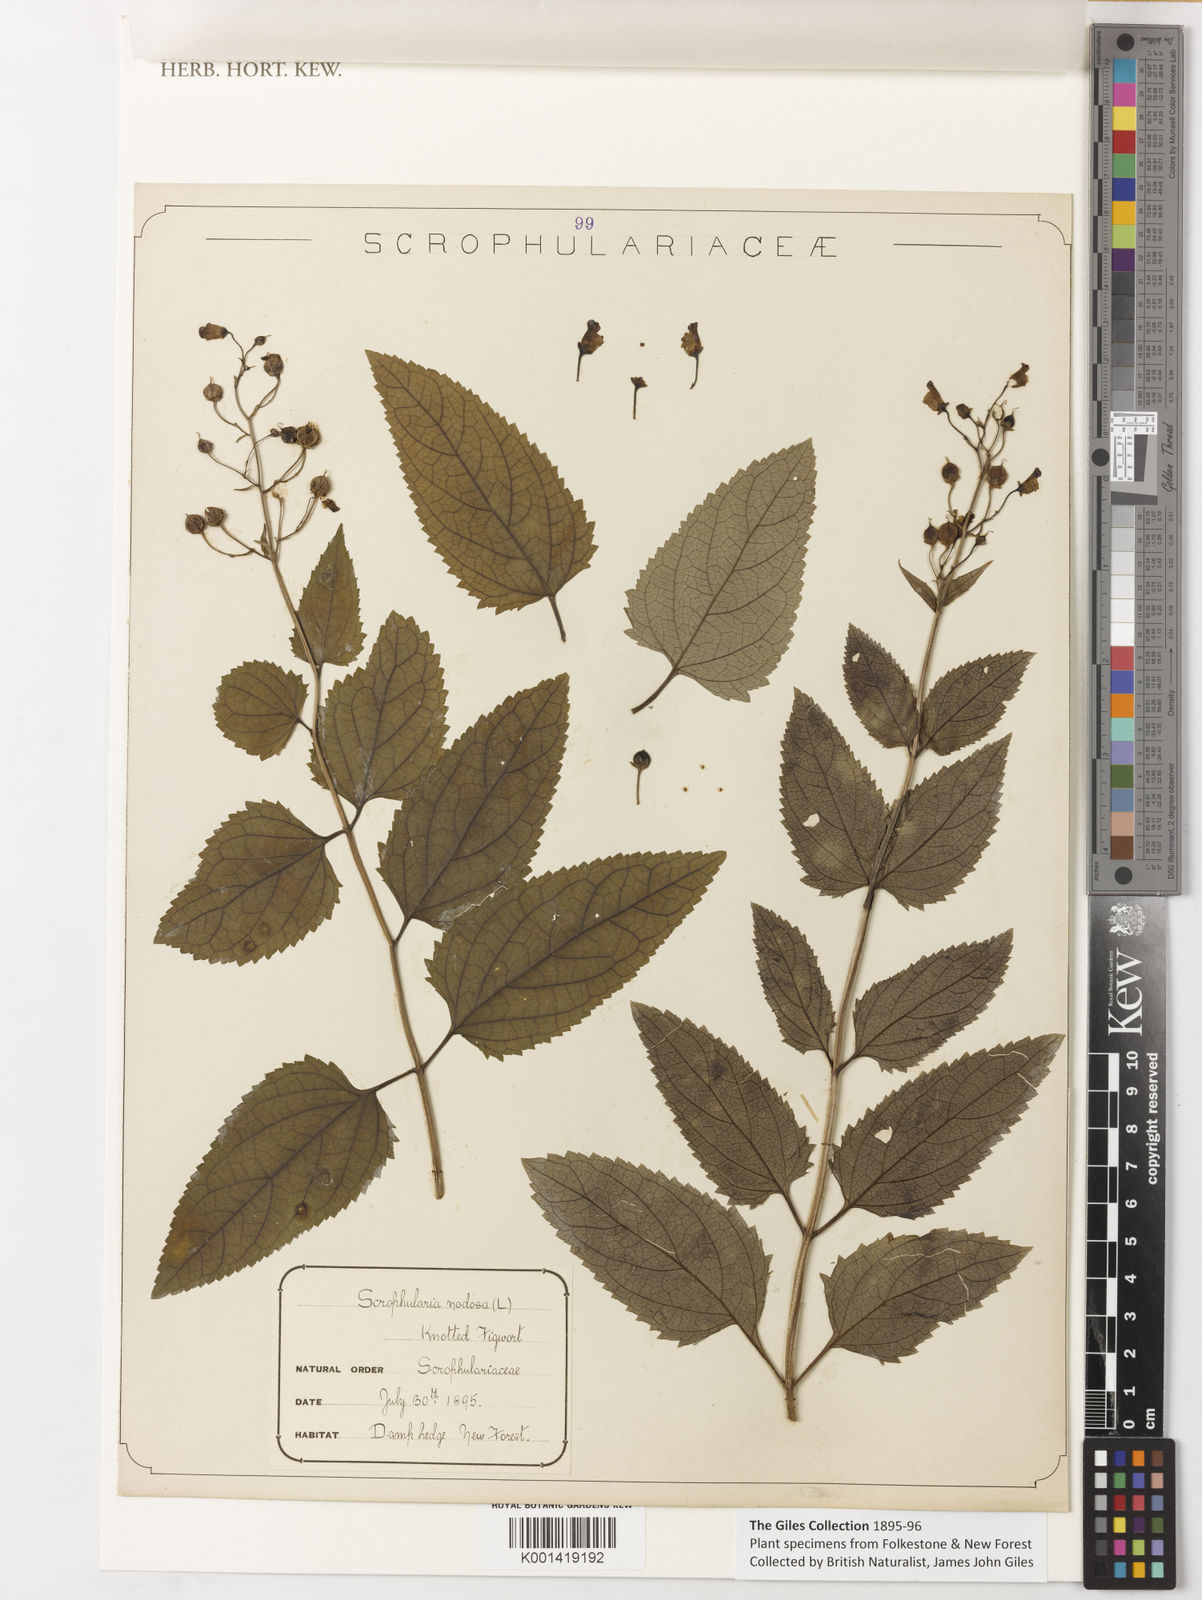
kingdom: Plantae
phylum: Tracheophyta
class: Magnoliopsida
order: Lamiales
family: Scrophulariaceae
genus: Scrophularia
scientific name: Scrophularia nodosa
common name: Common figwort
